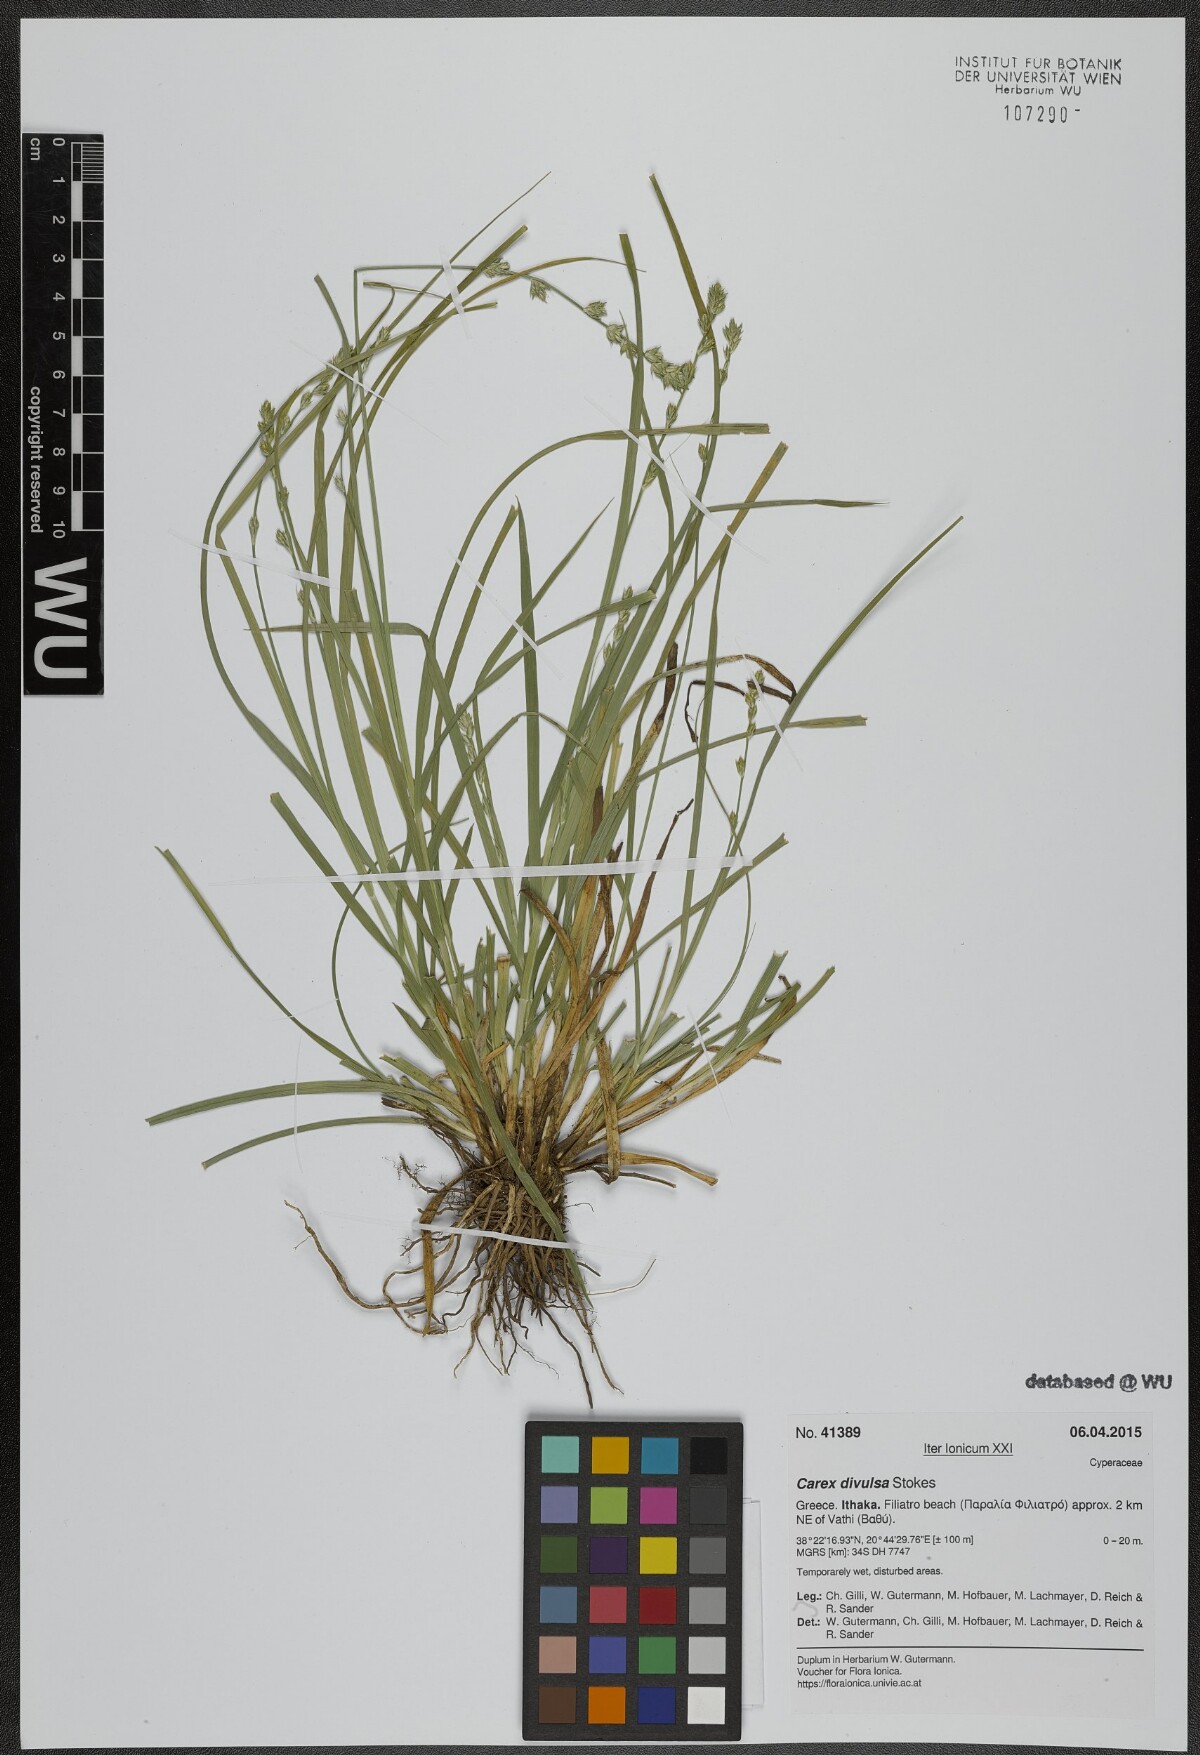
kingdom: Plantae
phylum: Tracheophyta
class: Liliopsida
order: Poales
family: Cyperaceae
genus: Carex
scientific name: Carex divulsa
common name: Grassland sedge
